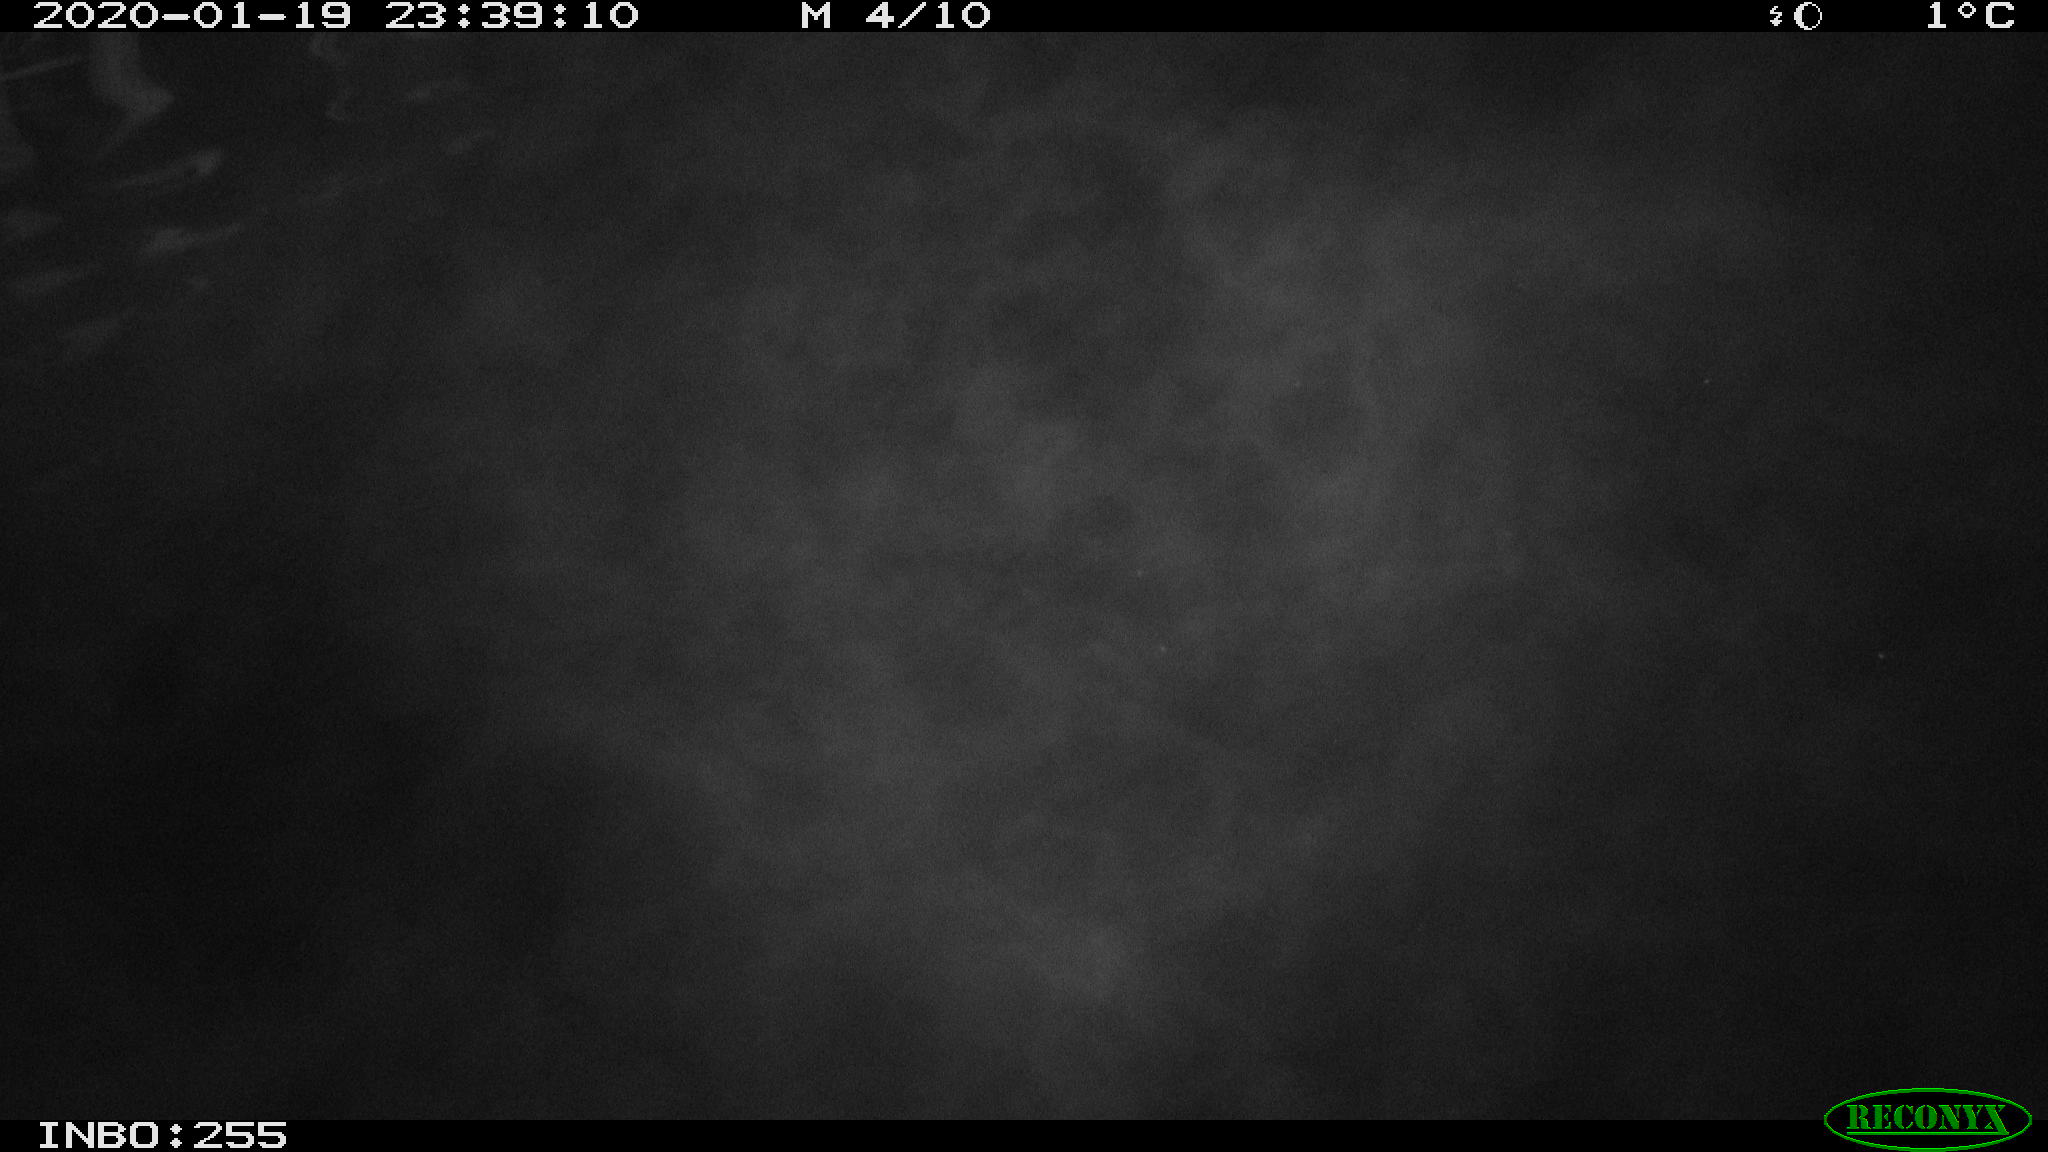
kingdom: Animalia
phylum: Chordata
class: Mammalia
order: Rodentia
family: Cricetidae
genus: Ondatra
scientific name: Ondatra zibethicus
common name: Muskrat
